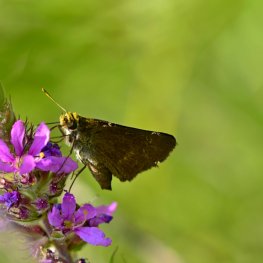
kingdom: Animalia
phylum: Arthropoda
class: Insecta
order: Lepidoptera
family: Hesperiidae
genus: Polites
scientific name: Polites egeremet
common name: Northern Broken-Dash
